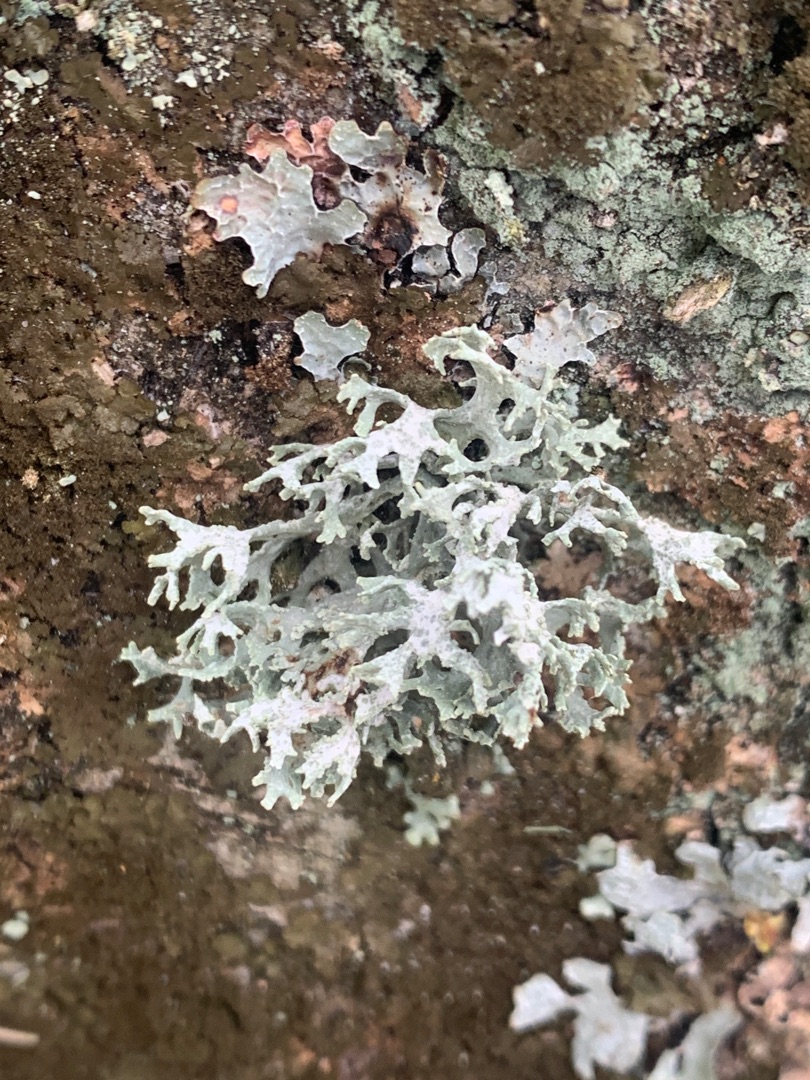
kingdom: Fungi
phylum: Ascomycota
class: Lecanoromycetes
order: Lecanorales
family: Parmeliaceae
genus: Evernia
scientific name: Evernia prunastri
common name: Almindelig slåenlav
